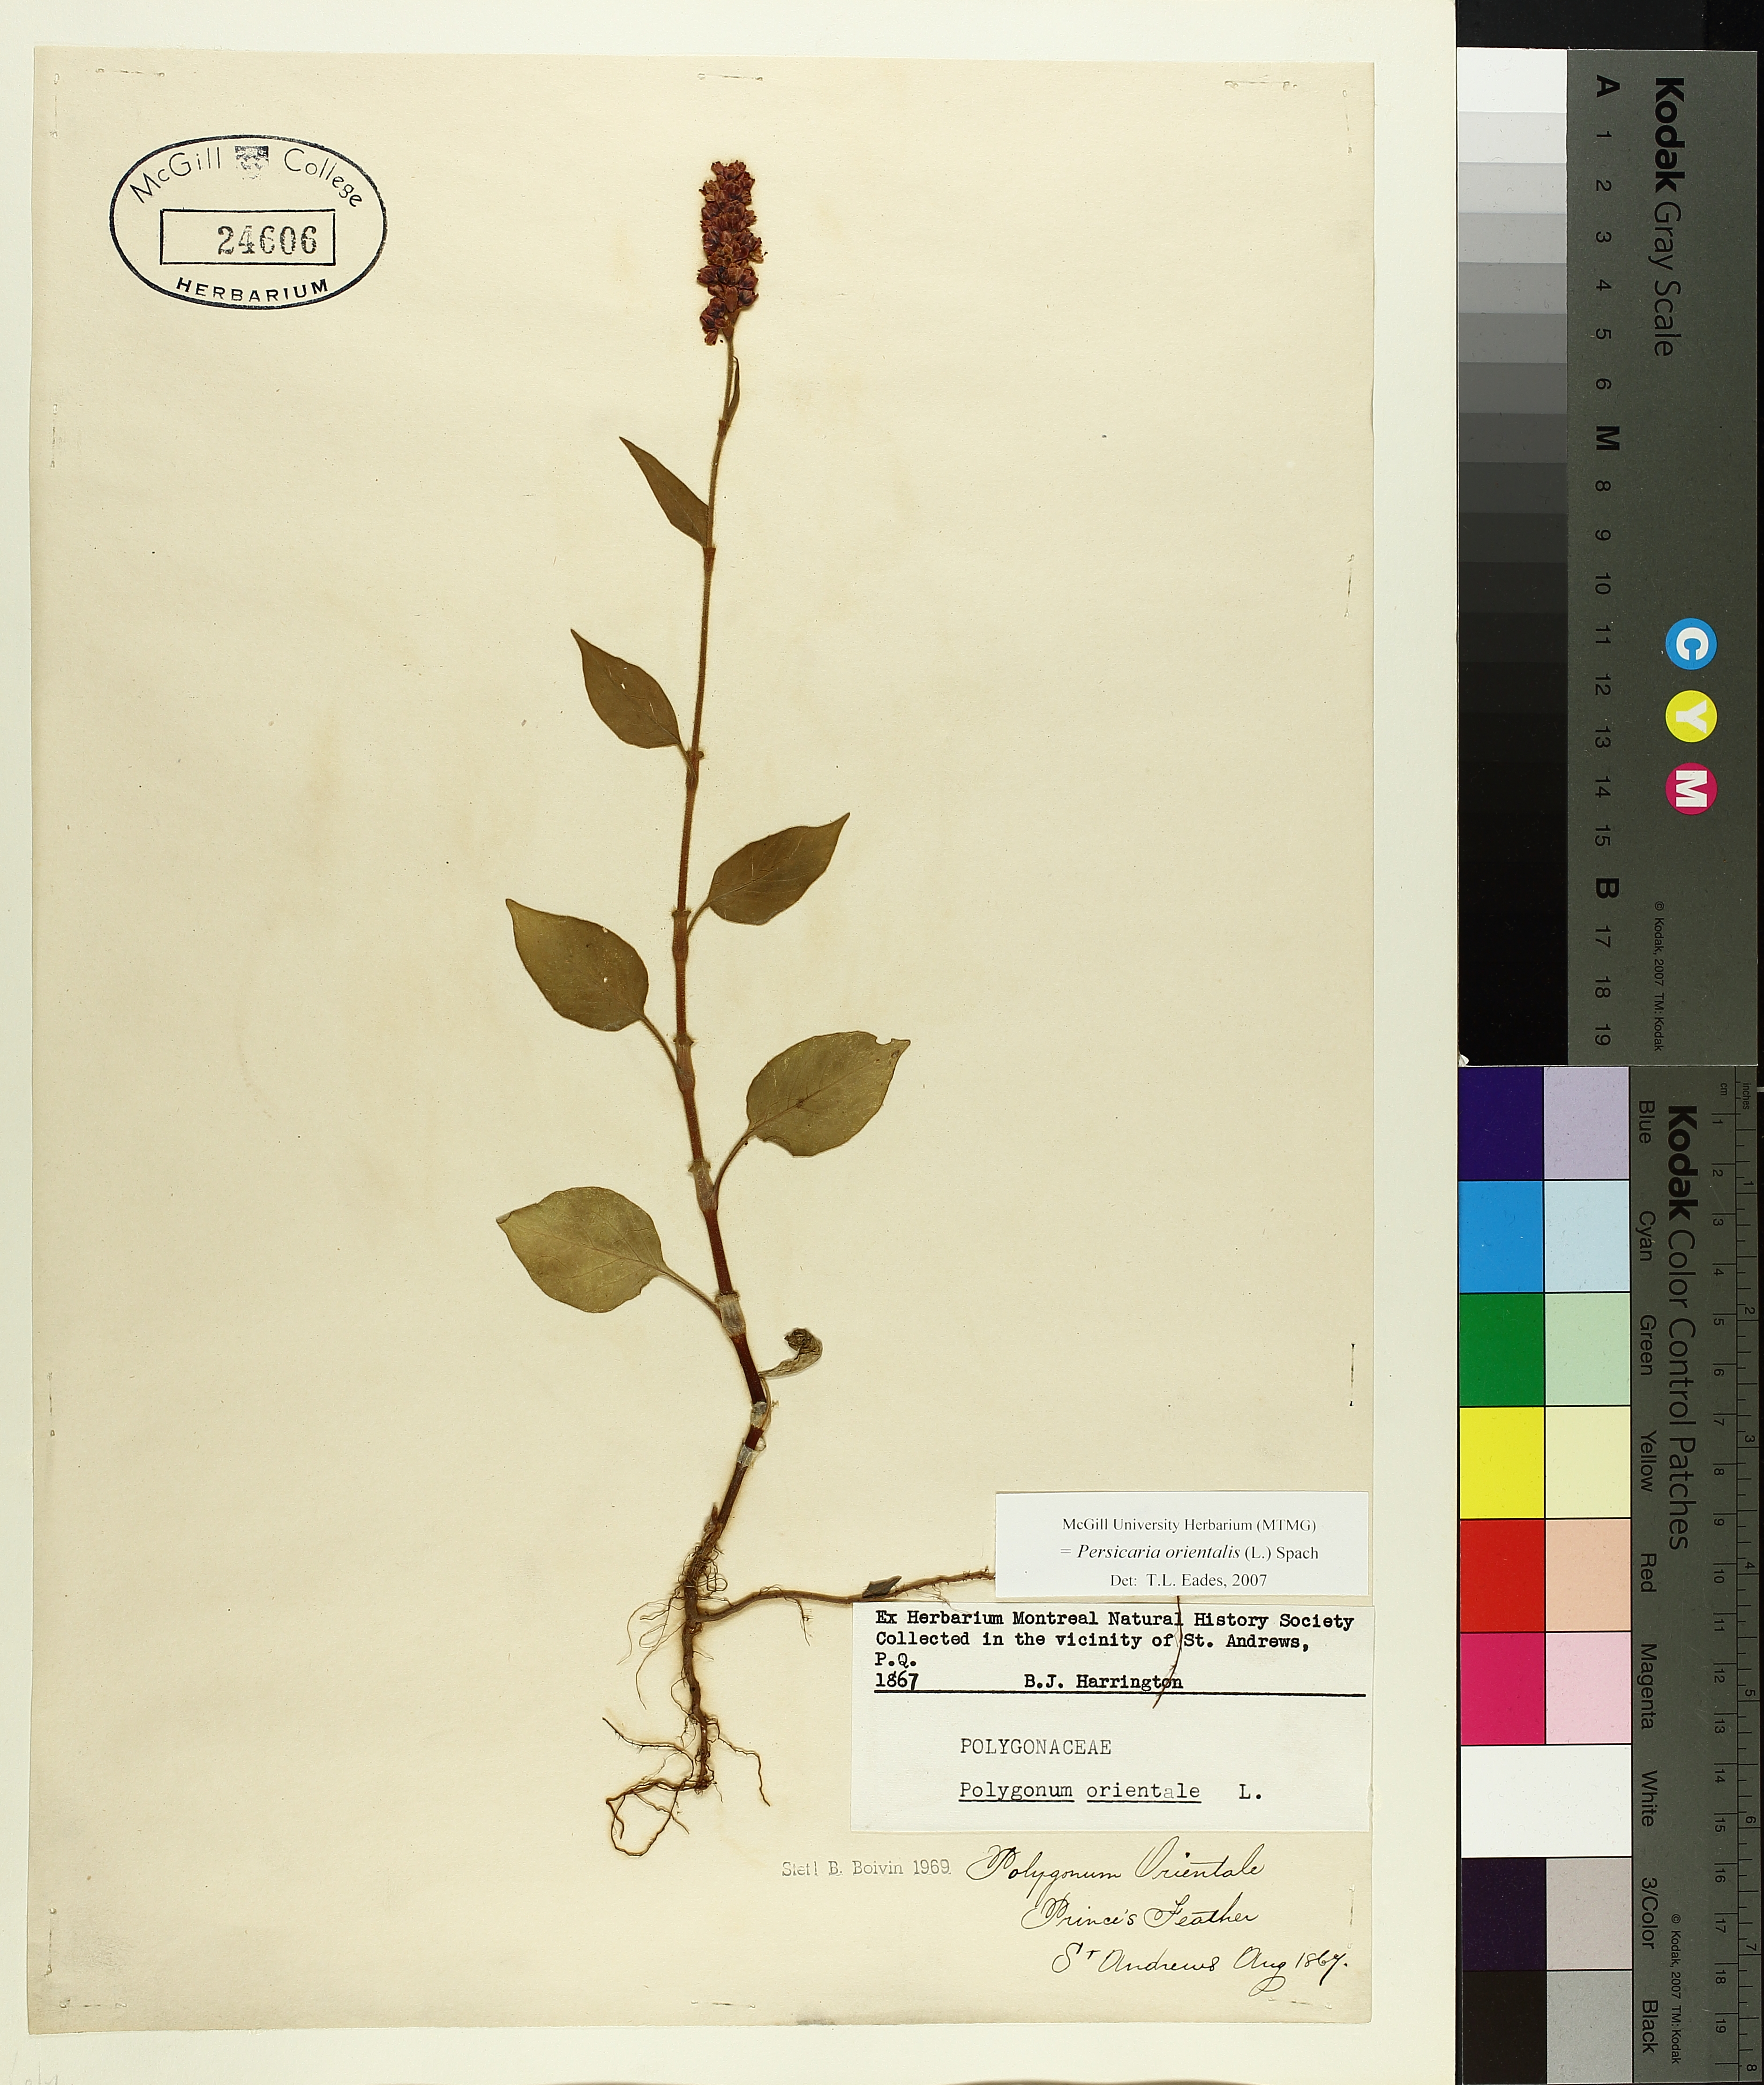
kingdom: Plantae
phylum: Tracheophyta
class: Magnoliopsida
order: Caryophyllales
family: Polygonaceae
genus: Persicaria
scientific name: Persicaria orientalis
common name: Kiss-me-over-the-garden-gate
